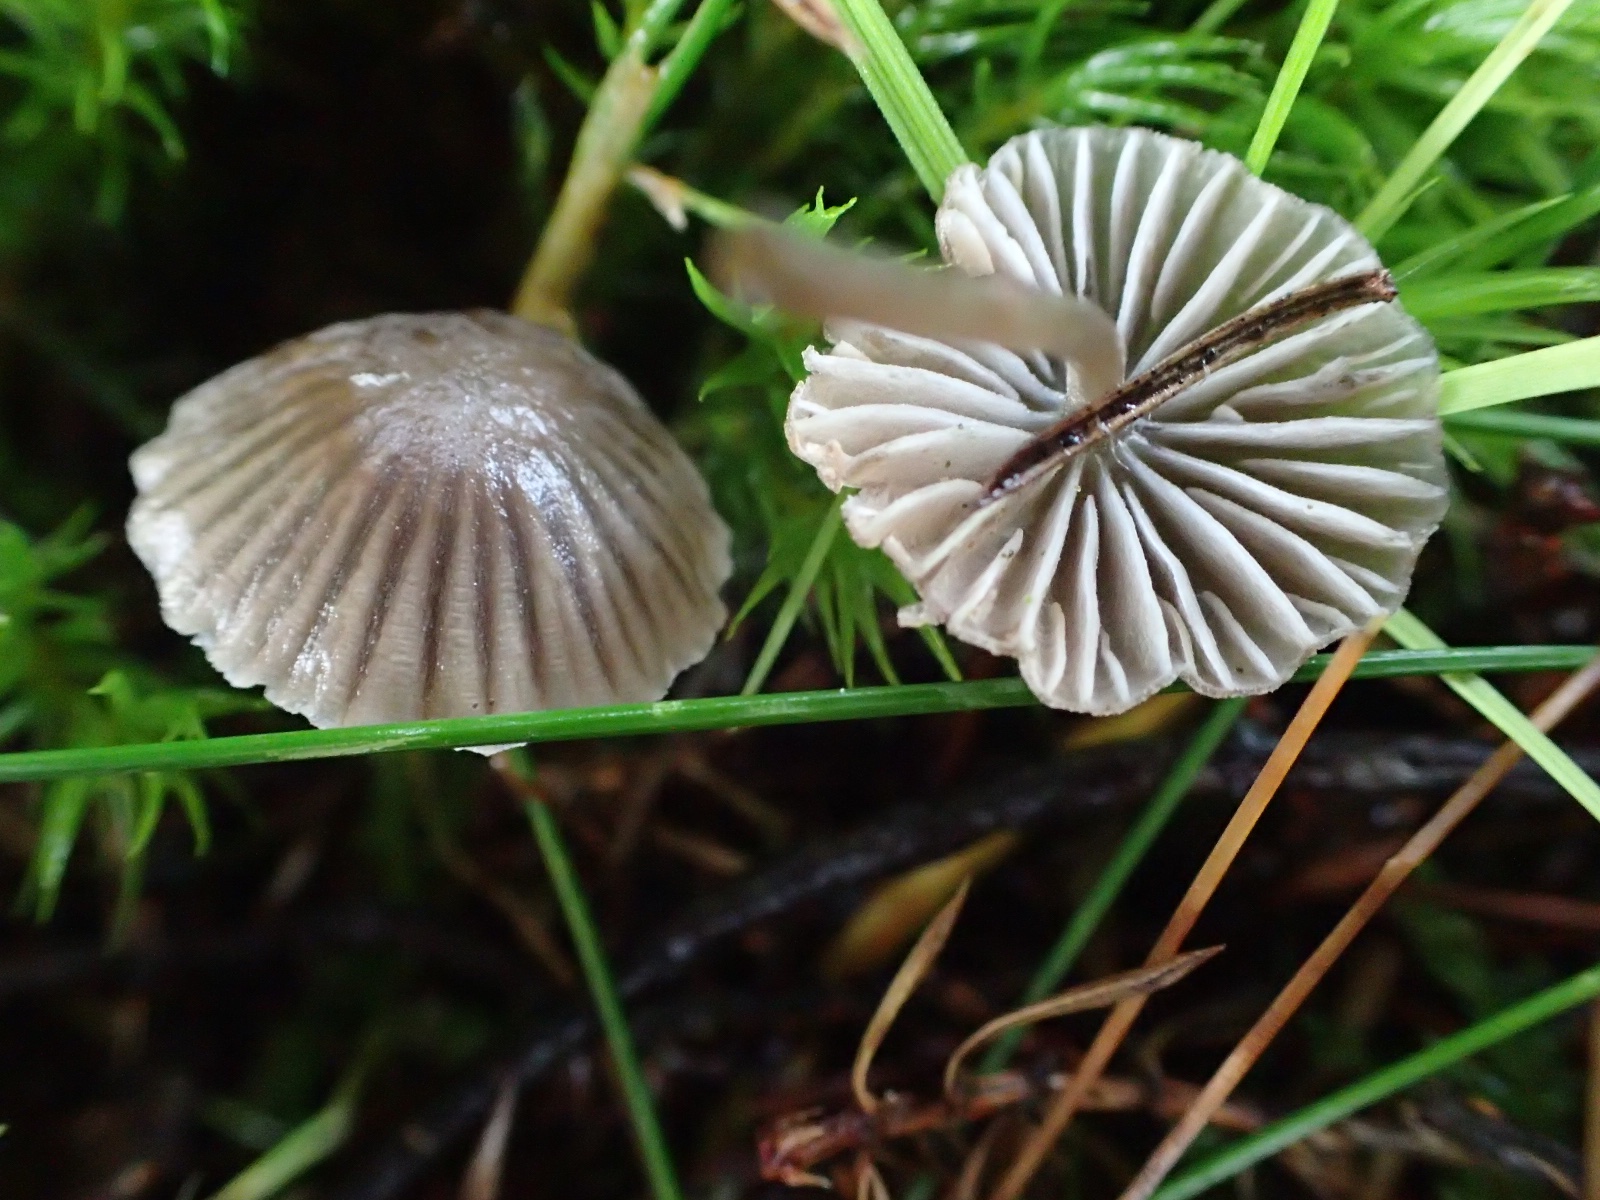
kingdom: Fungi
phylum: Basidiomycota
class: Agaricomycetes
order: Agaricales
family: Mycenaceae
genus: Mycena
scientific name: Mycena
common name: huesvamp
